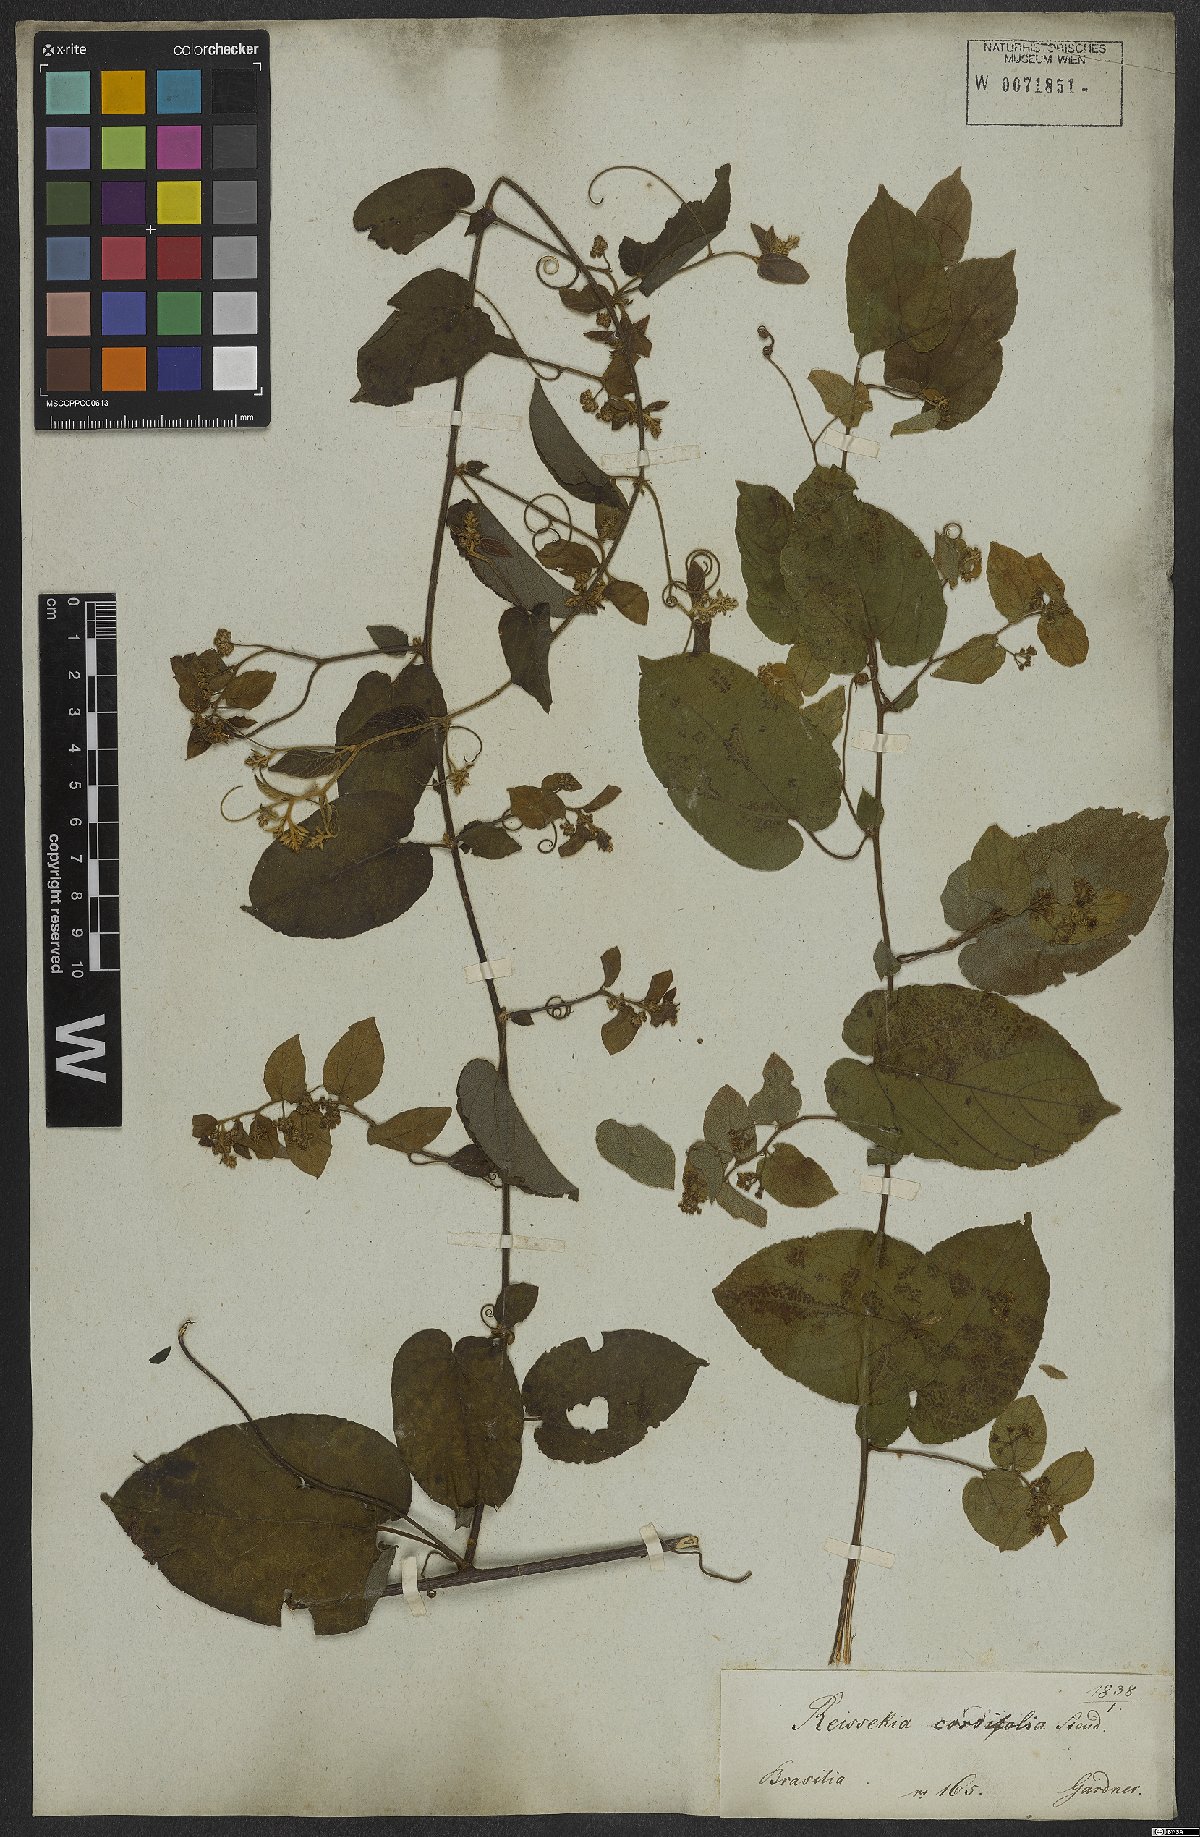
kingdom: Plantae
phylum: Tracheophyta
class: Magnoliopsida
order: Rosales
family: Rhamnaceae
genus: Reissekia
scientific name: Reissekia smilacina
